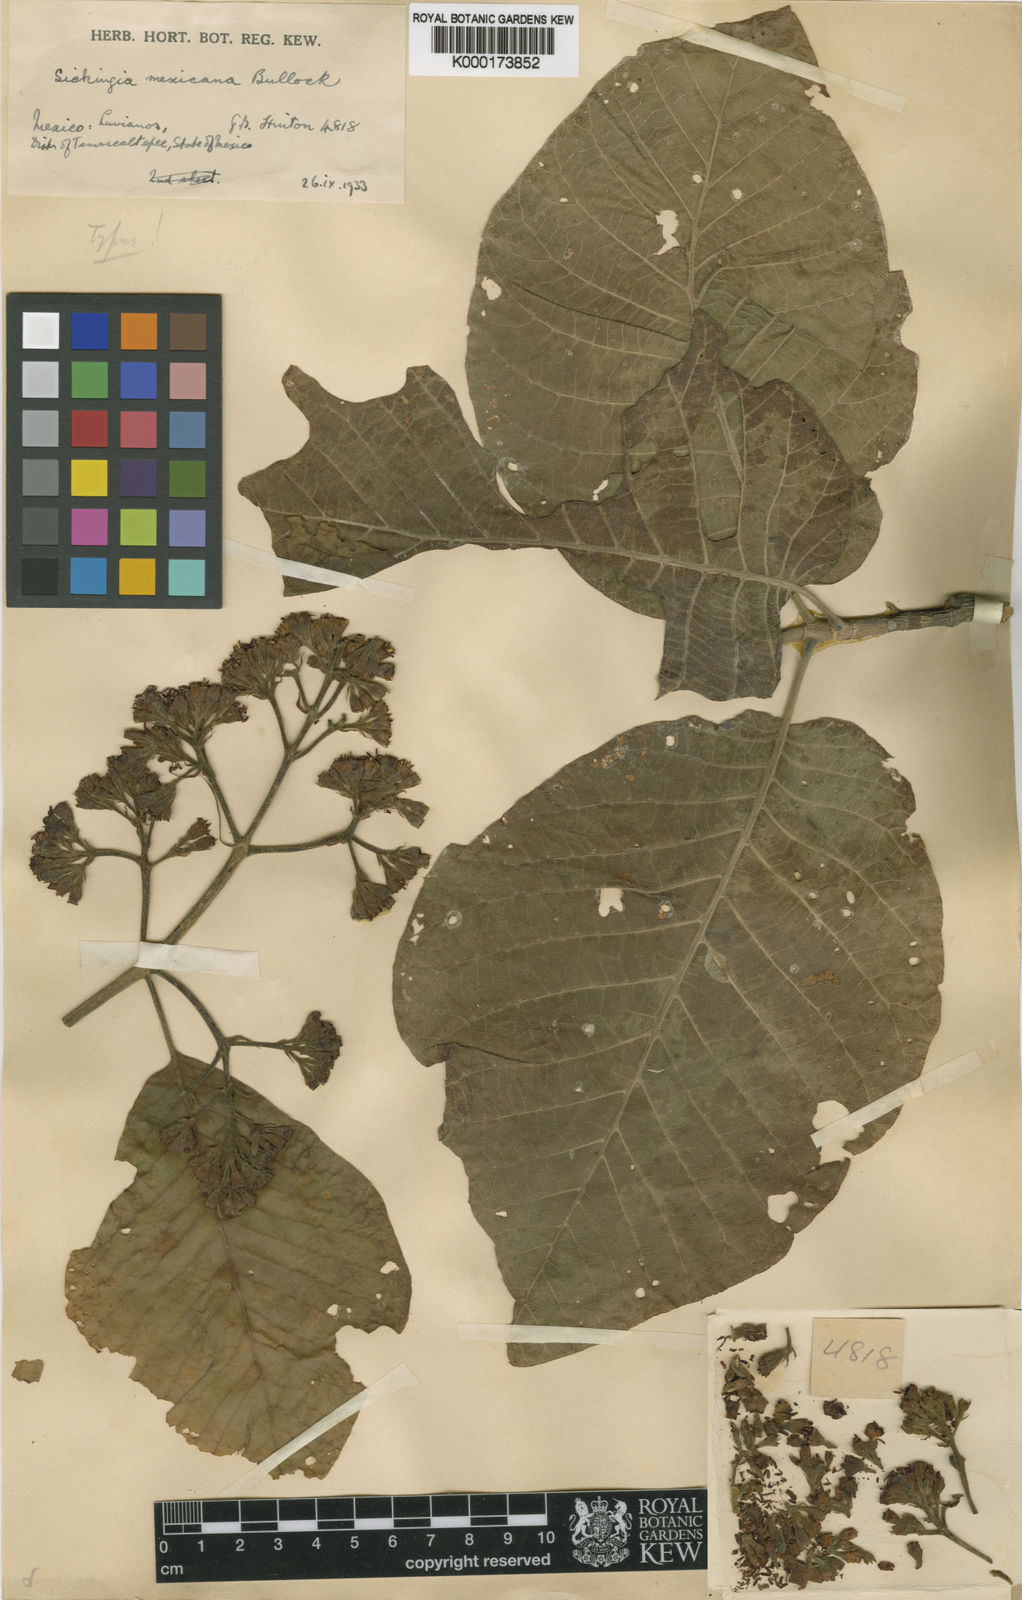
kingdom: Plantae
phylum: Tracheophyta
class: Magnoliopsida
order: Gentianales
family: Rubiaceae
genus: Simira
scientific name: Simira mexicana
